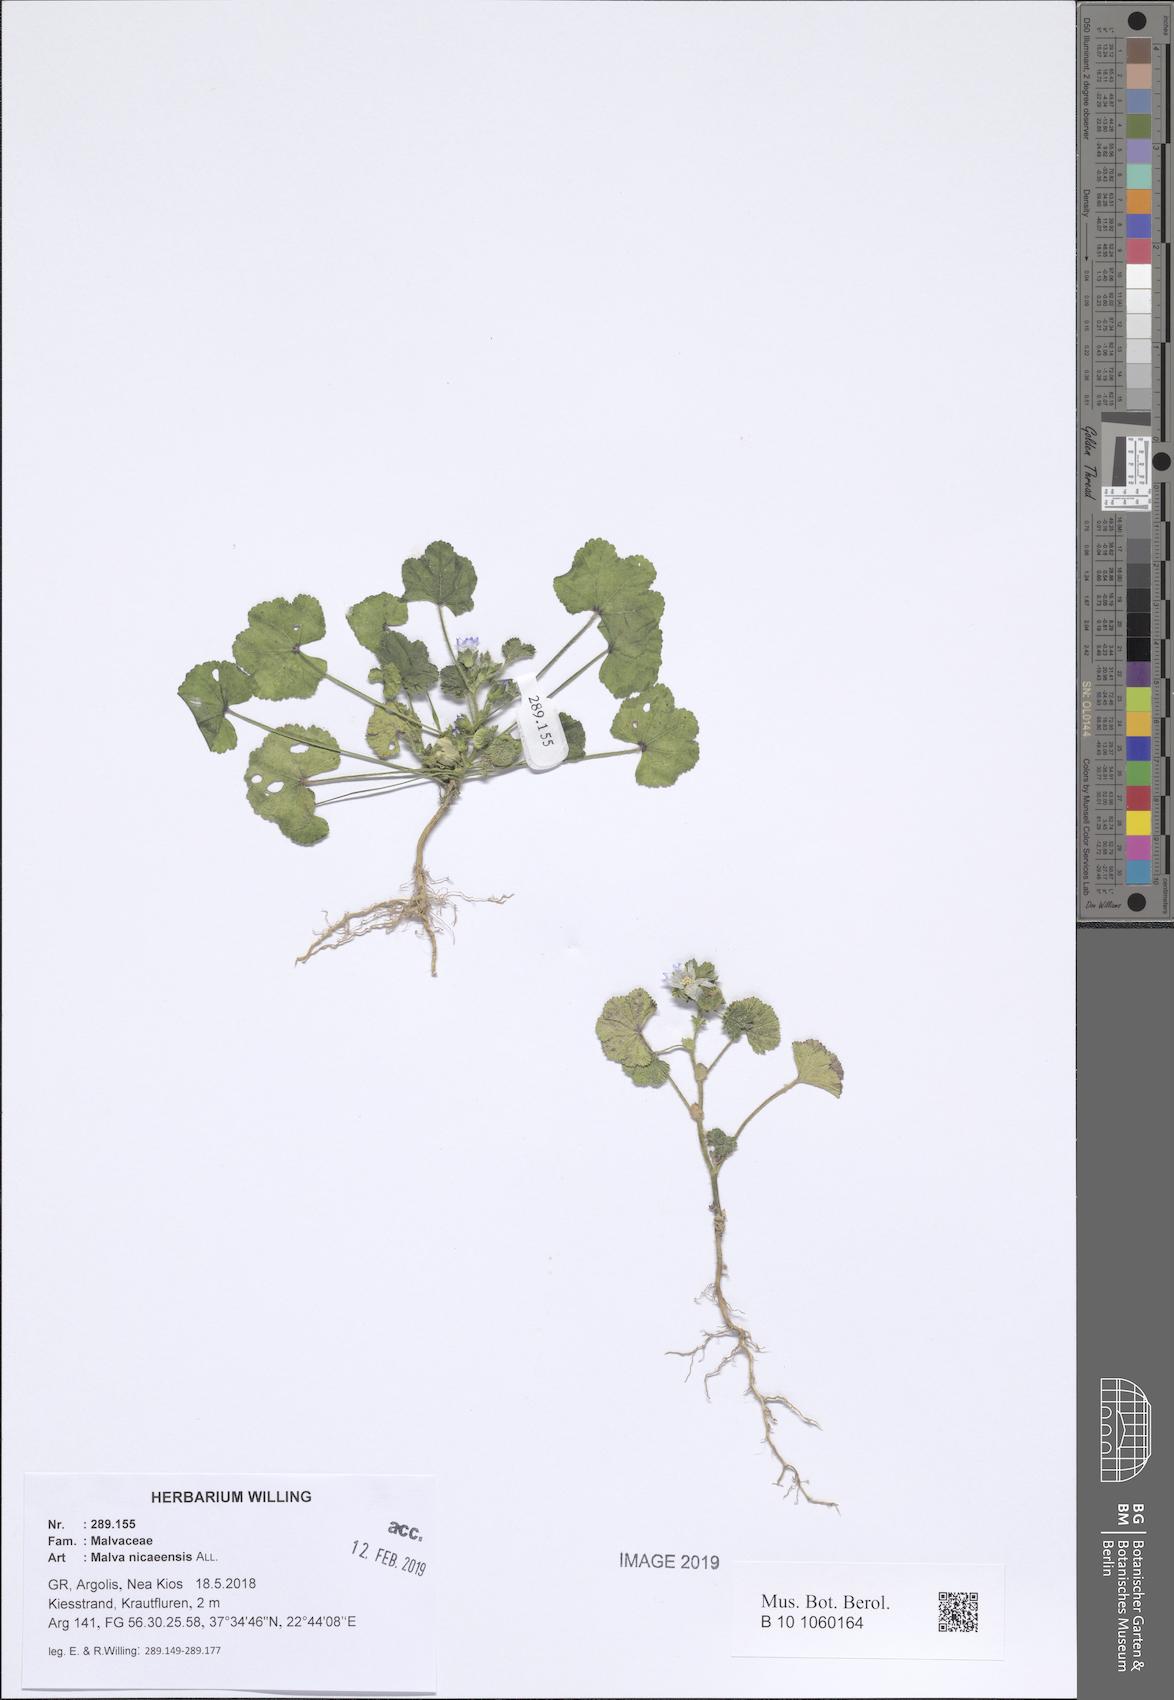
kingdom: Plantae
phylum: Tracheophyta
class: Magnoliopsida
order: Malvales
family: Malvaceae
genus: Malva
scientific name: Malva nicaeensis
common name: French mallow
